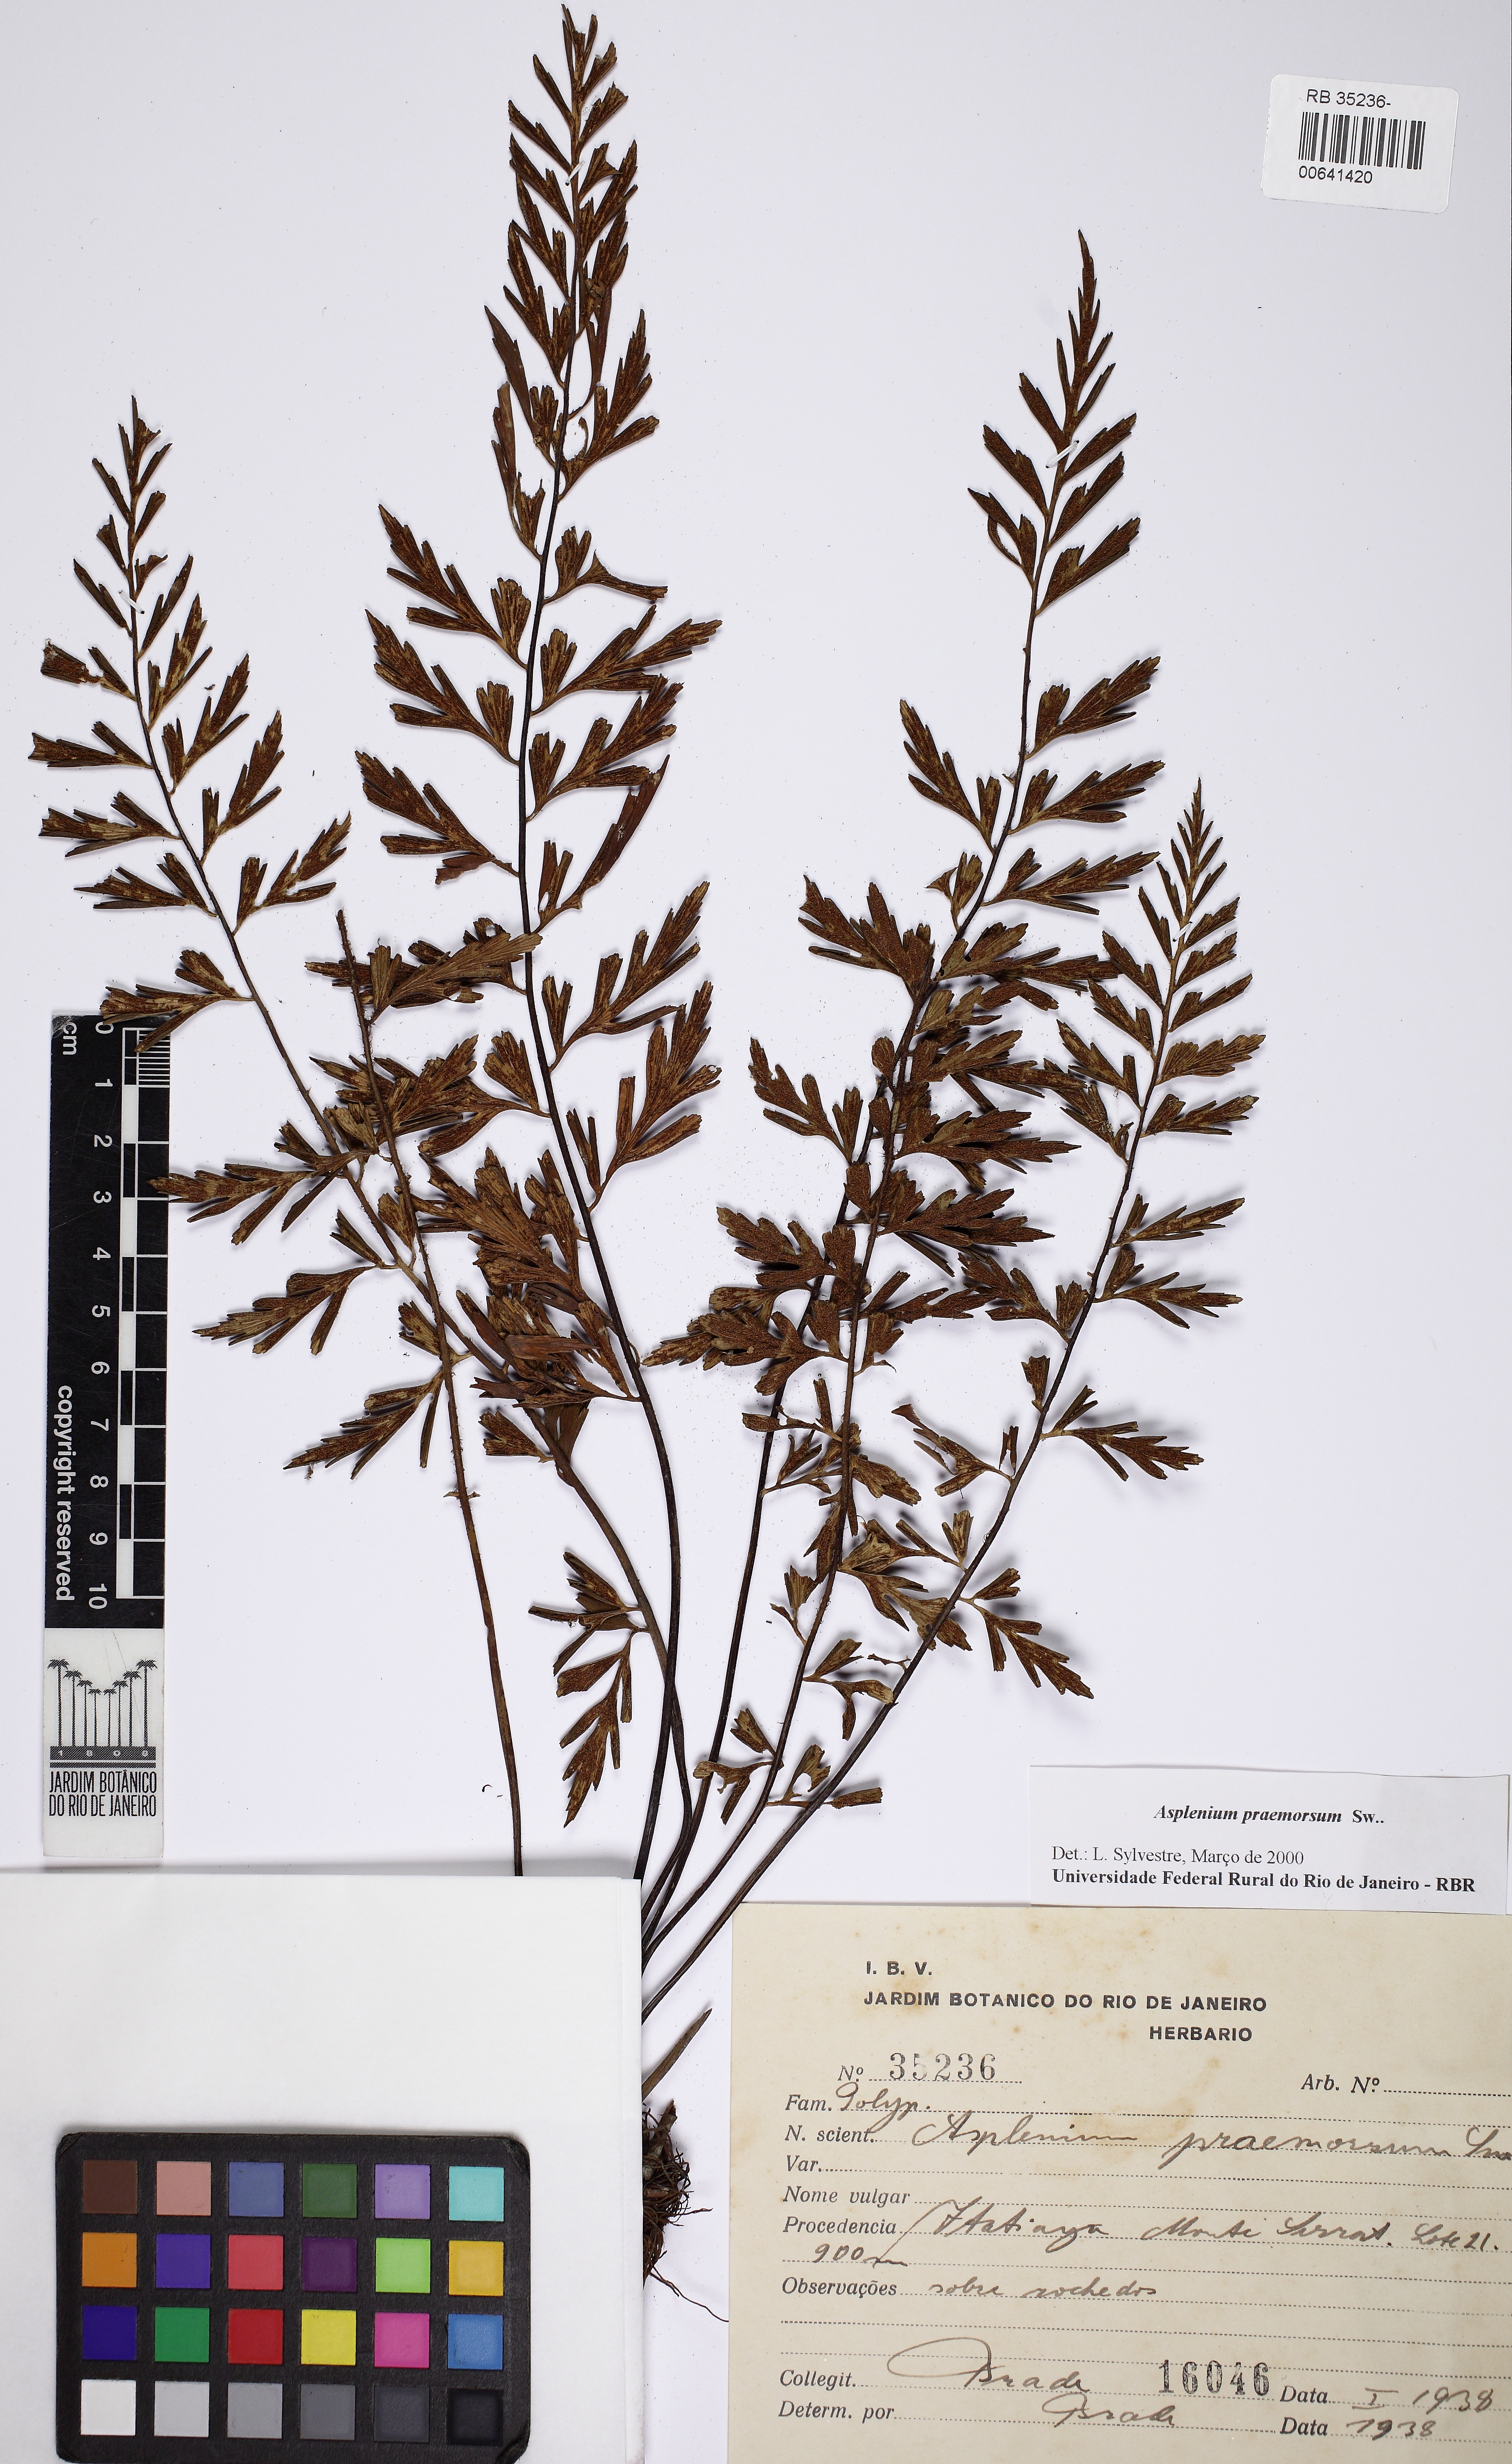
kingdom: Plantae
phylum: Tracheophyta
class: Polypodiopsida
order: Polypodiales
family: Aspleniaceae
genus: Asplenium
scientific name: Asplenium praemorsum
